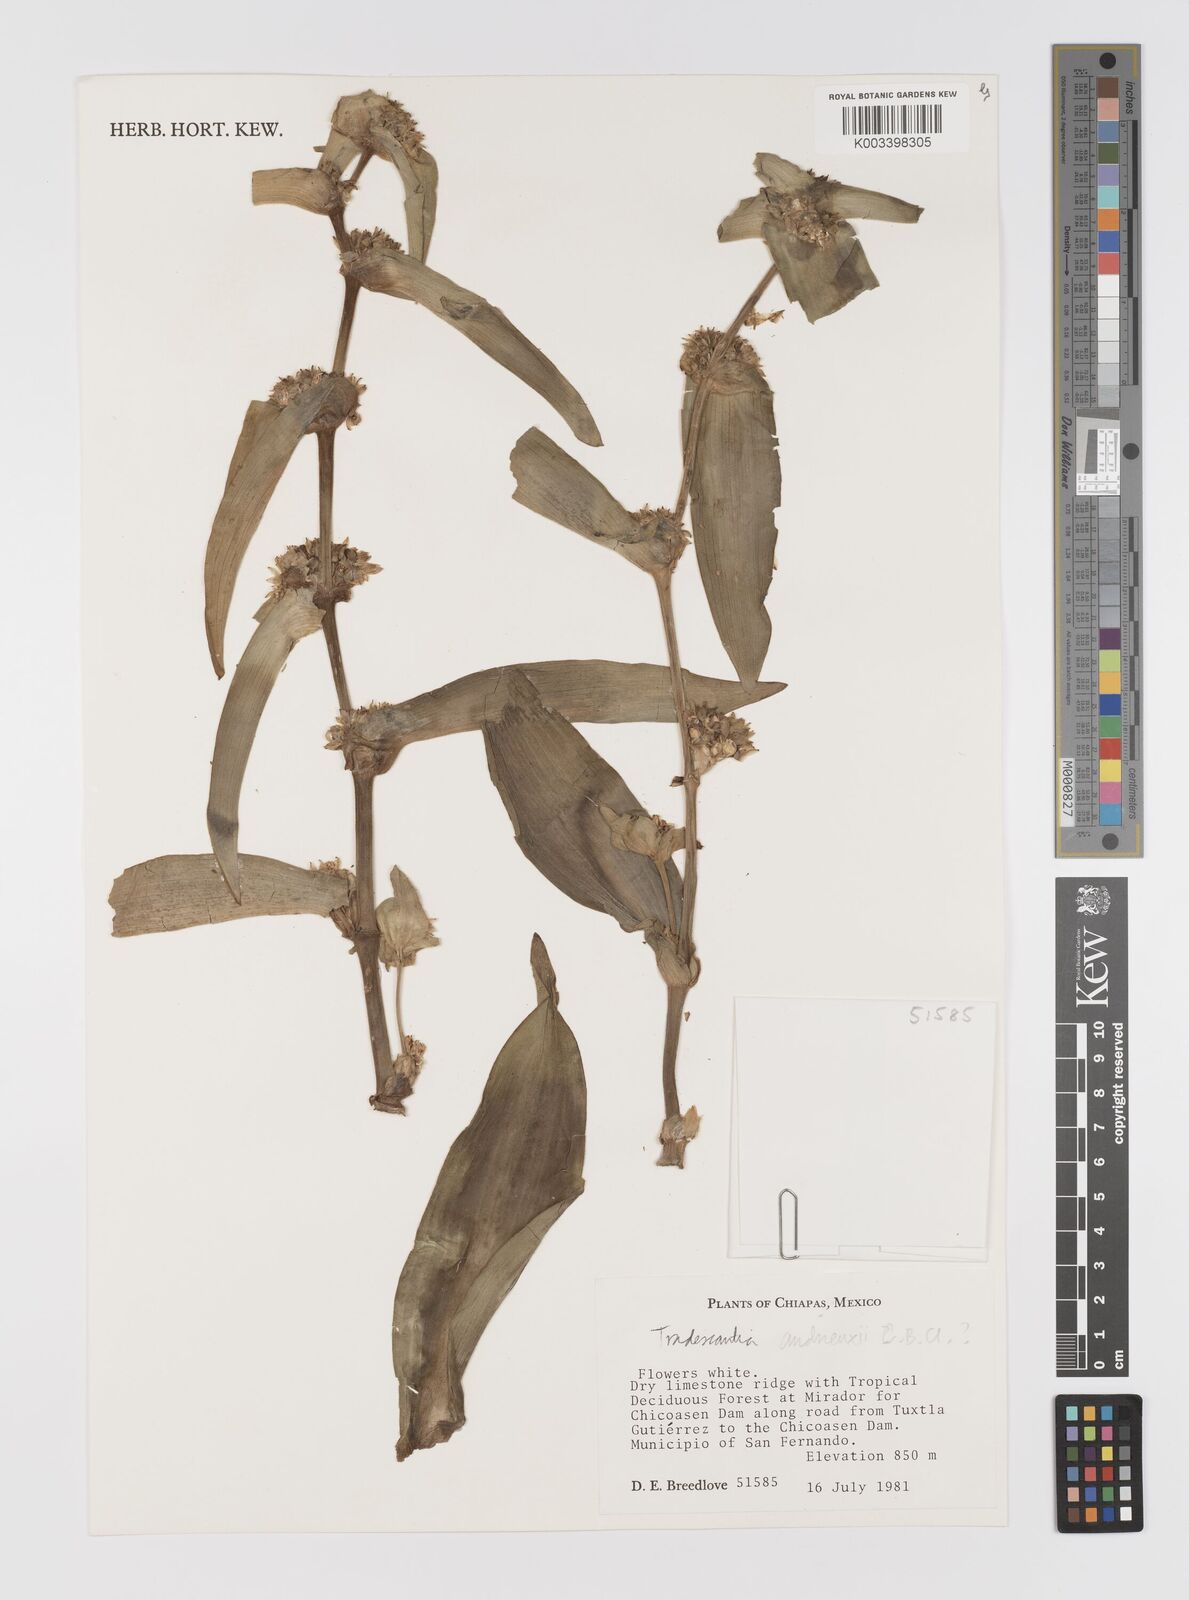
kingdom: Plantae
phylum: Tracheophyta
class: Liliopsida
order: Commelinales
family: Commelinaceae
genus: Tradescantia
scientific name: Tradescantia andrieuxii
